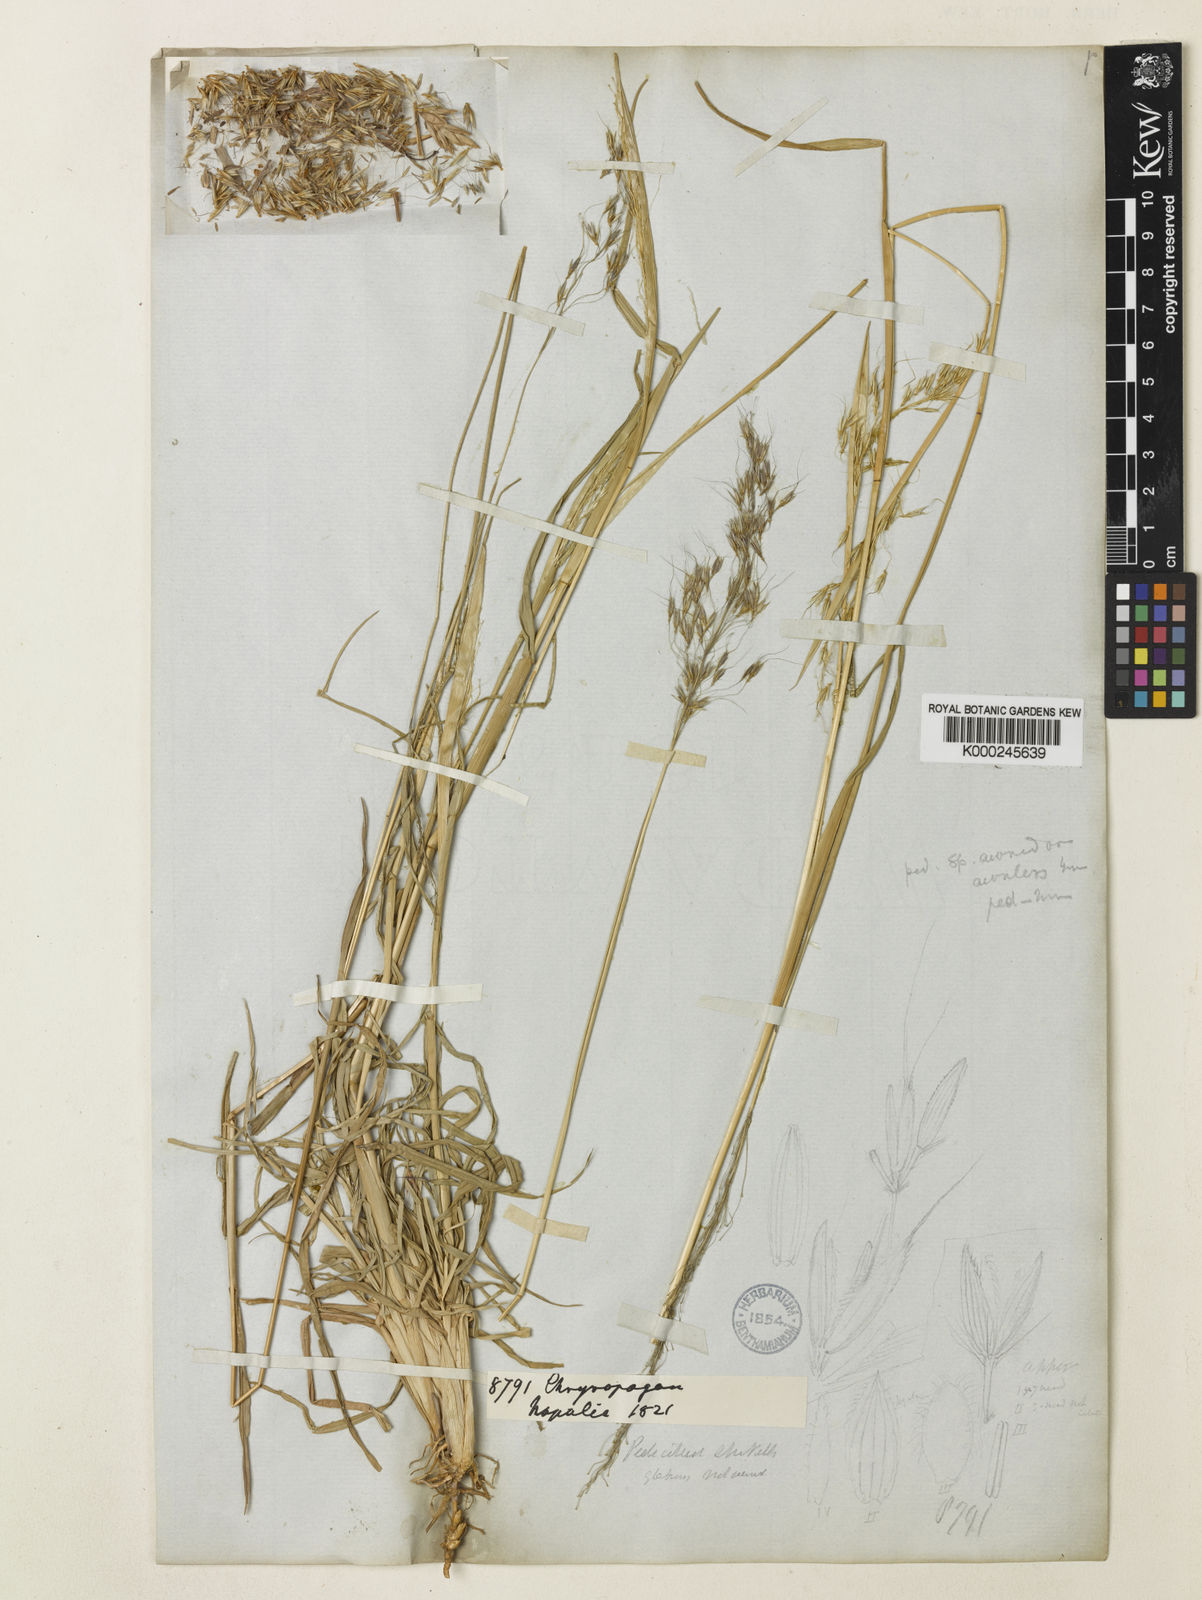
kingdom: Plantae
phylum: Tracheophyta
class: Liliopsida
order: Poales
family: Poaceae
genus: Chrysopogon
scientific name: Chrysopogon serrulatus
